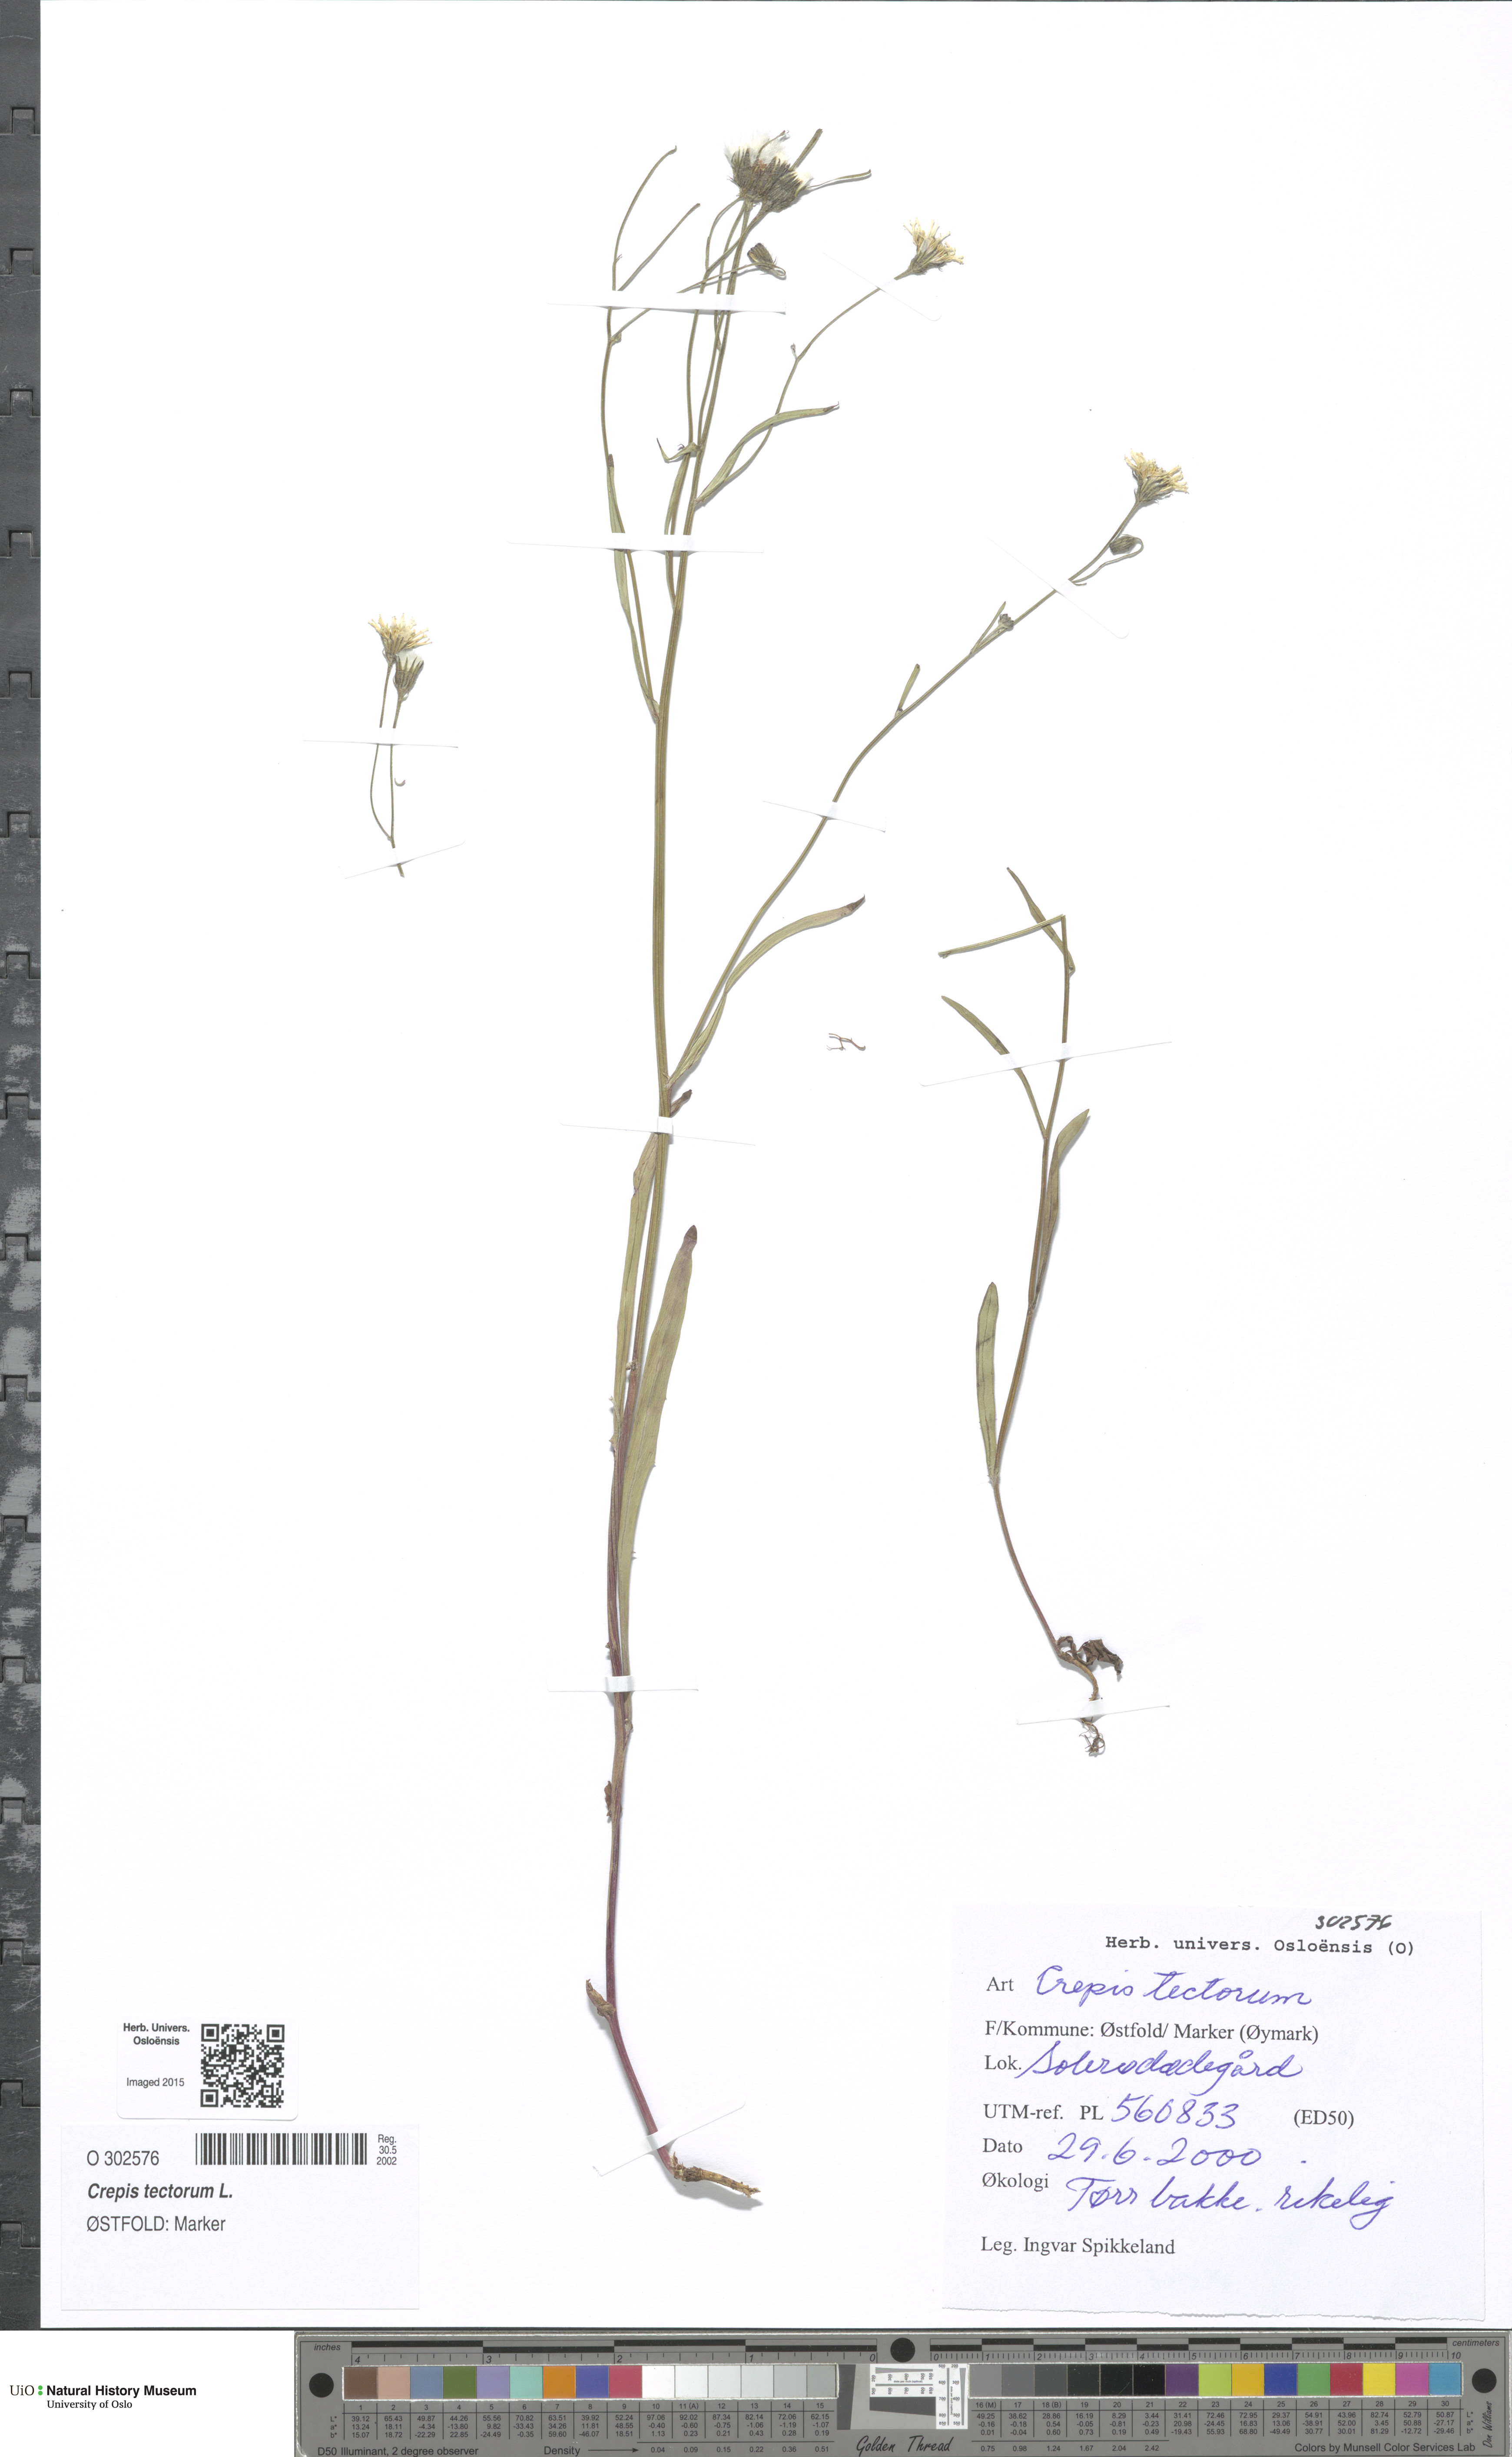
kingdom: Plantae
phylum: Tracheophyta
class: Magnoliopsida
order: Asterales
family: Asteraceae
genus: Crepis
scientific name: Crepis tectorum
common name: Narrow-leaved hawk's-beard
